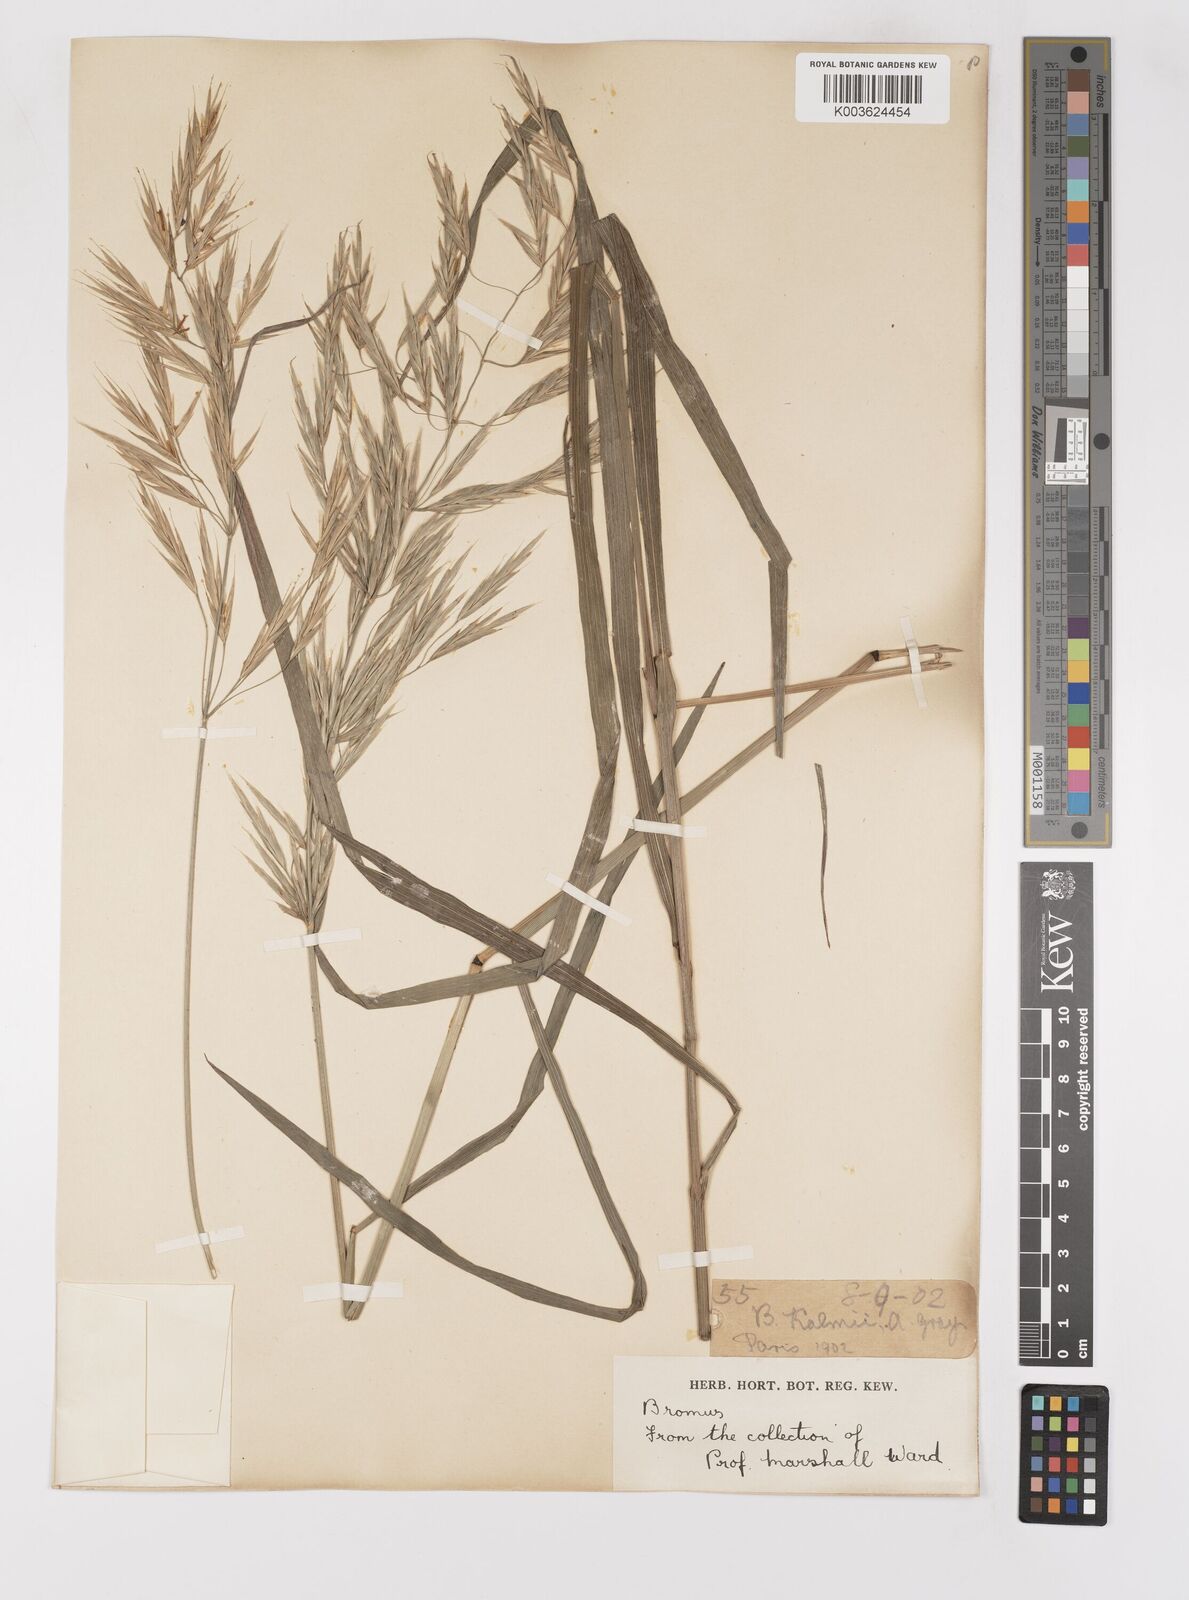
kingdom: Plantae
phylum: Tracheophyta
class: Liliopsida
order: Poales
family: Poaceae
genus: Bromus
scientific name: Bromus
